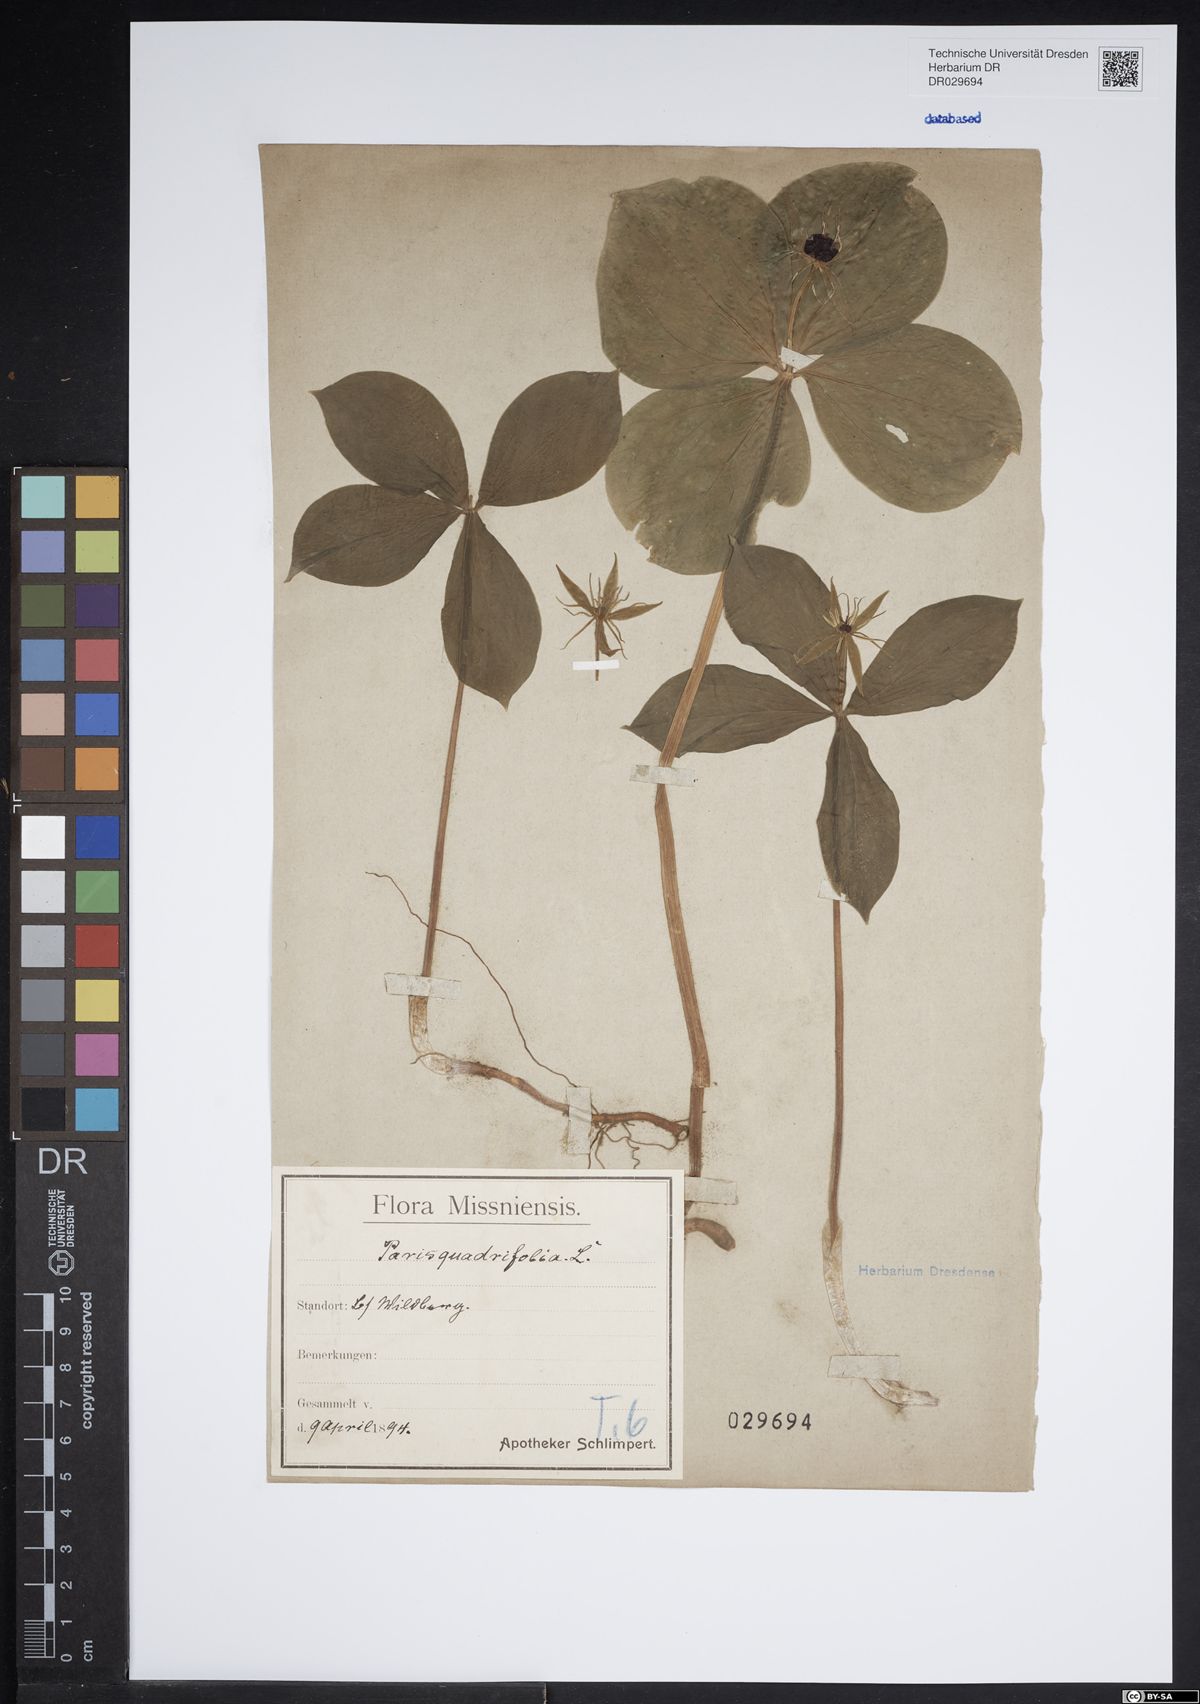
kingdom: Plantae
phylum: Tracheophyta
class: Liliopsida
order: Liliales
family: Melanthiaceae
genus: Paris
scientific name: Paris quadrifolia
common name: Herb-paris
